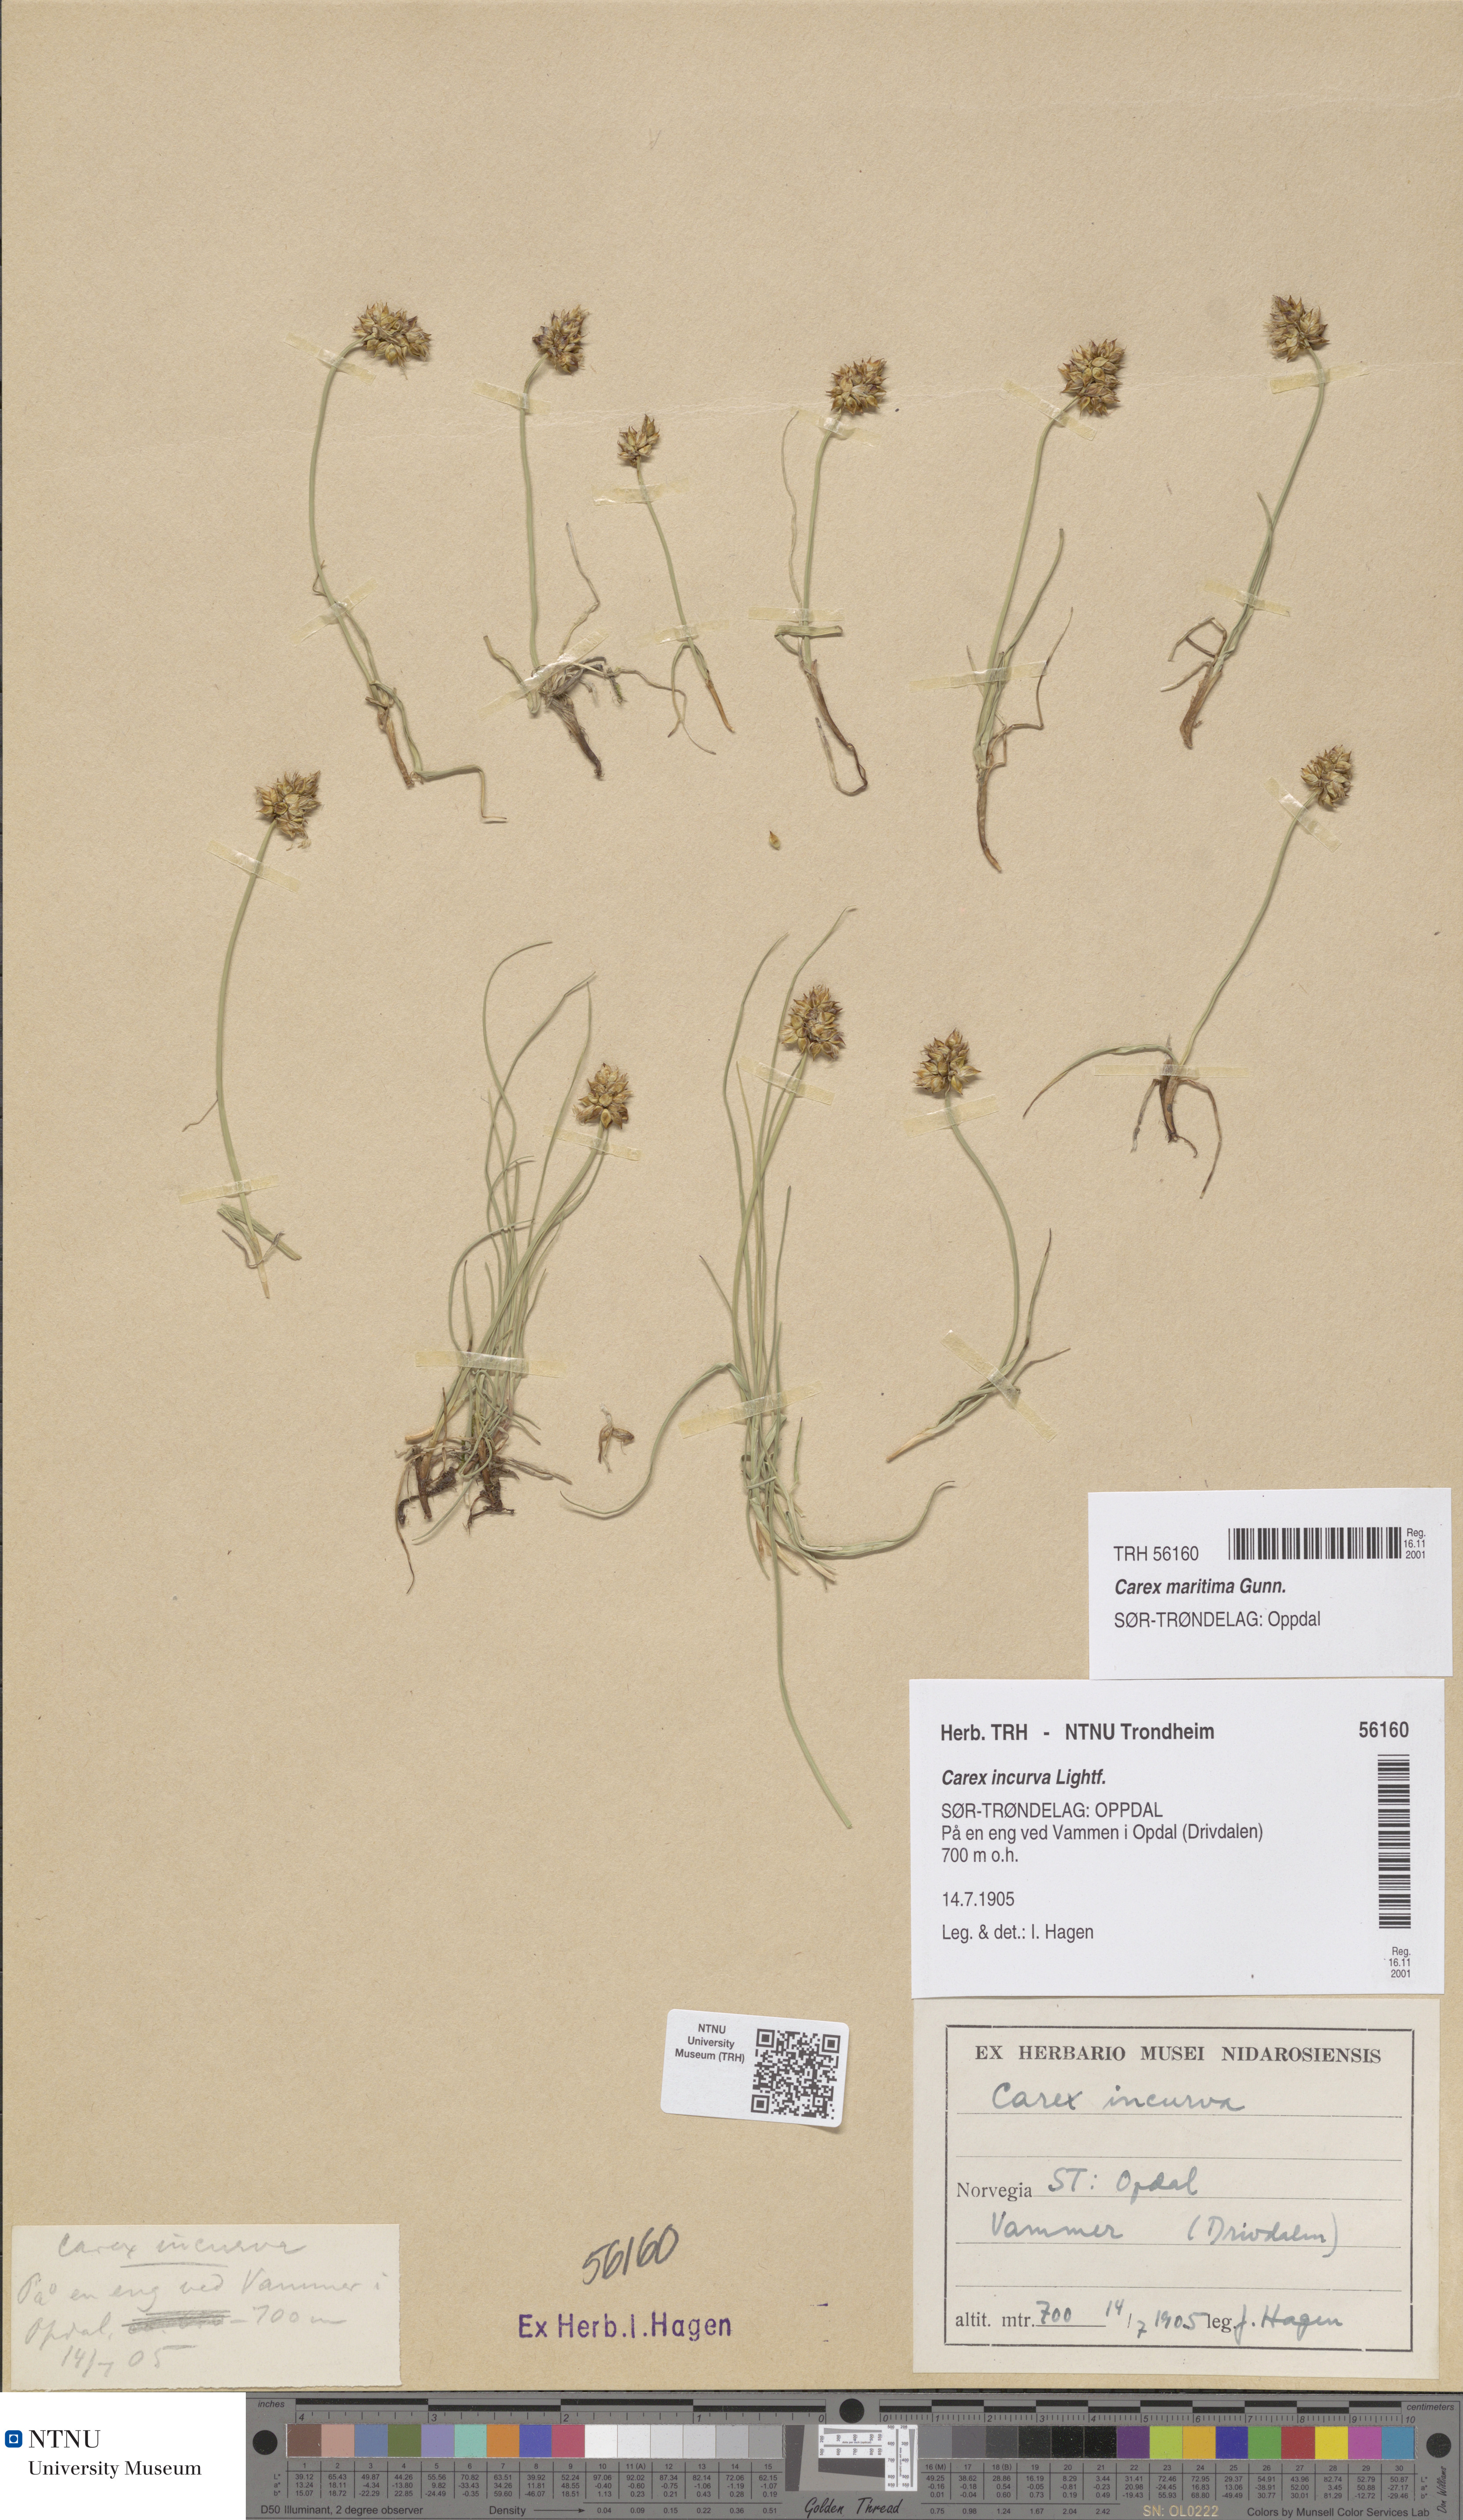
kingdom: Plantae
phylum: Tracheophyta
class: Liliopsida
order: Poales
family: Cyperaceae
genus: Carex
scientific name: Carex maritima
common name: Curved sedge
